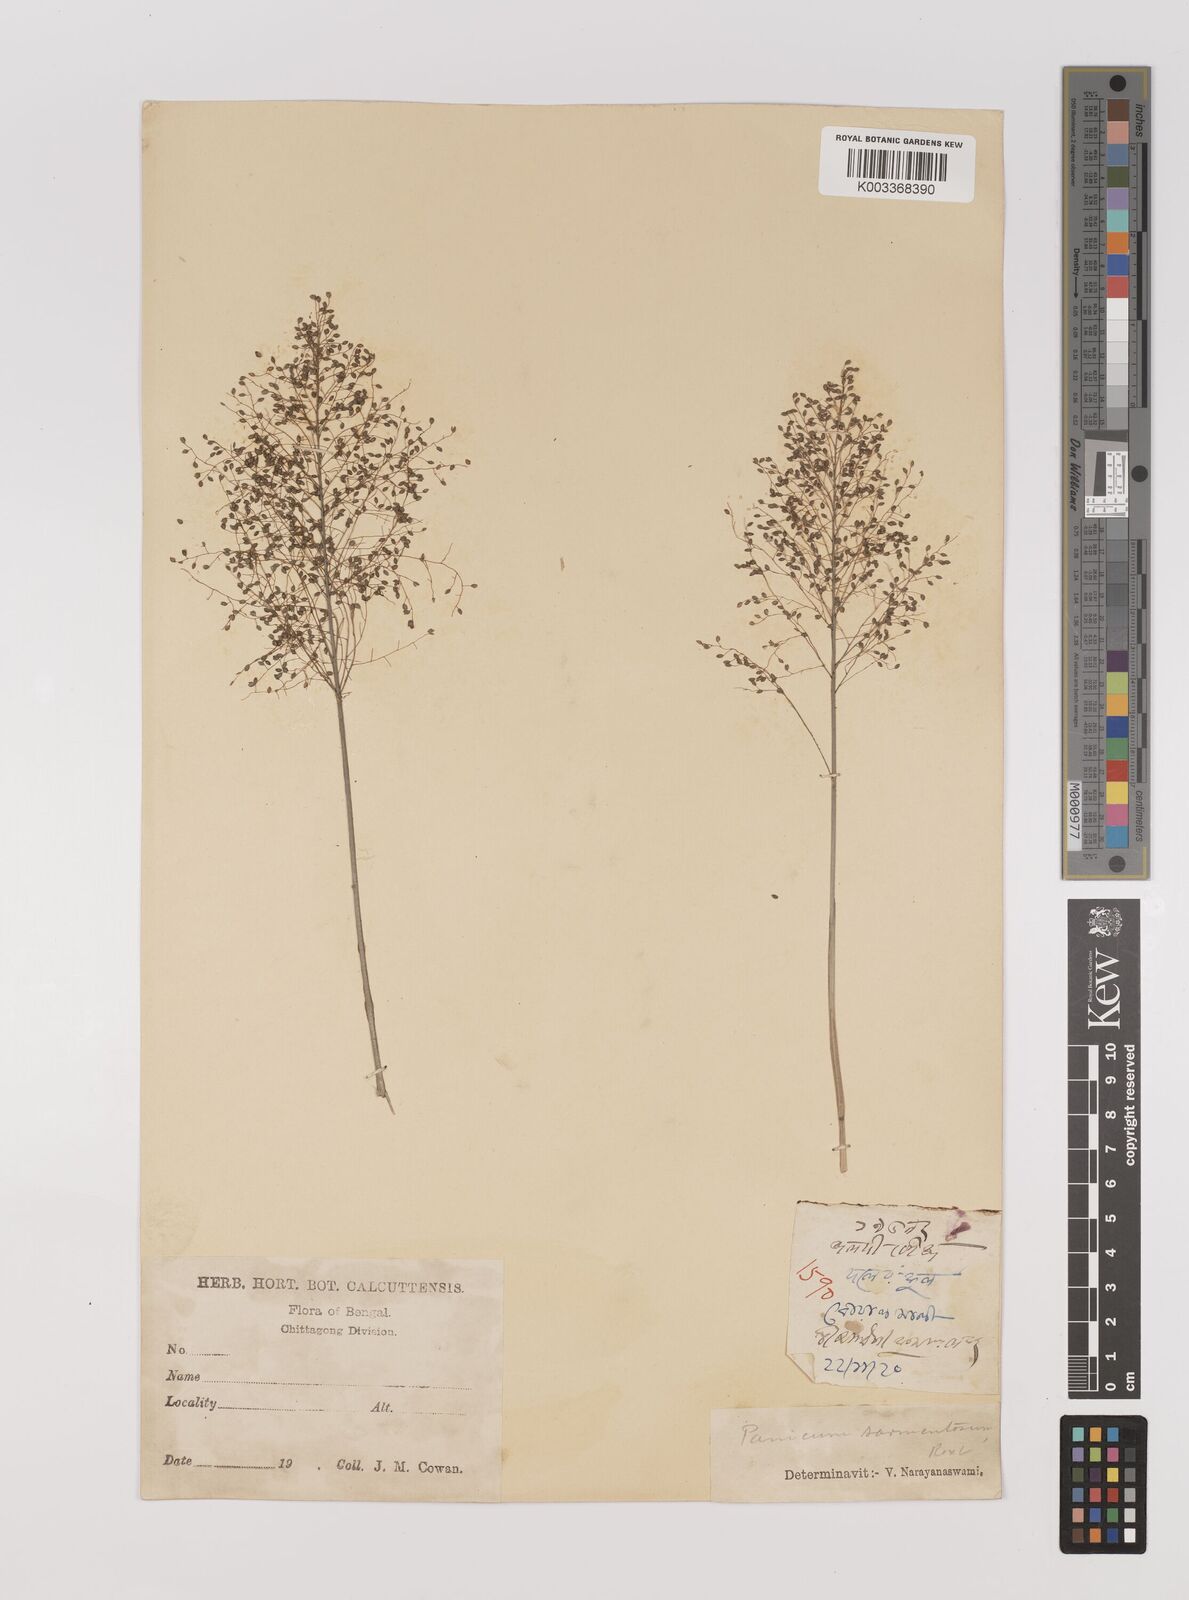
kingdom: Plantae
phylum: Tracheophyta
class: Liliopsida
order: Poales
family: Poaceae
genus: Panicum
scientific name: Panicum incomtum
